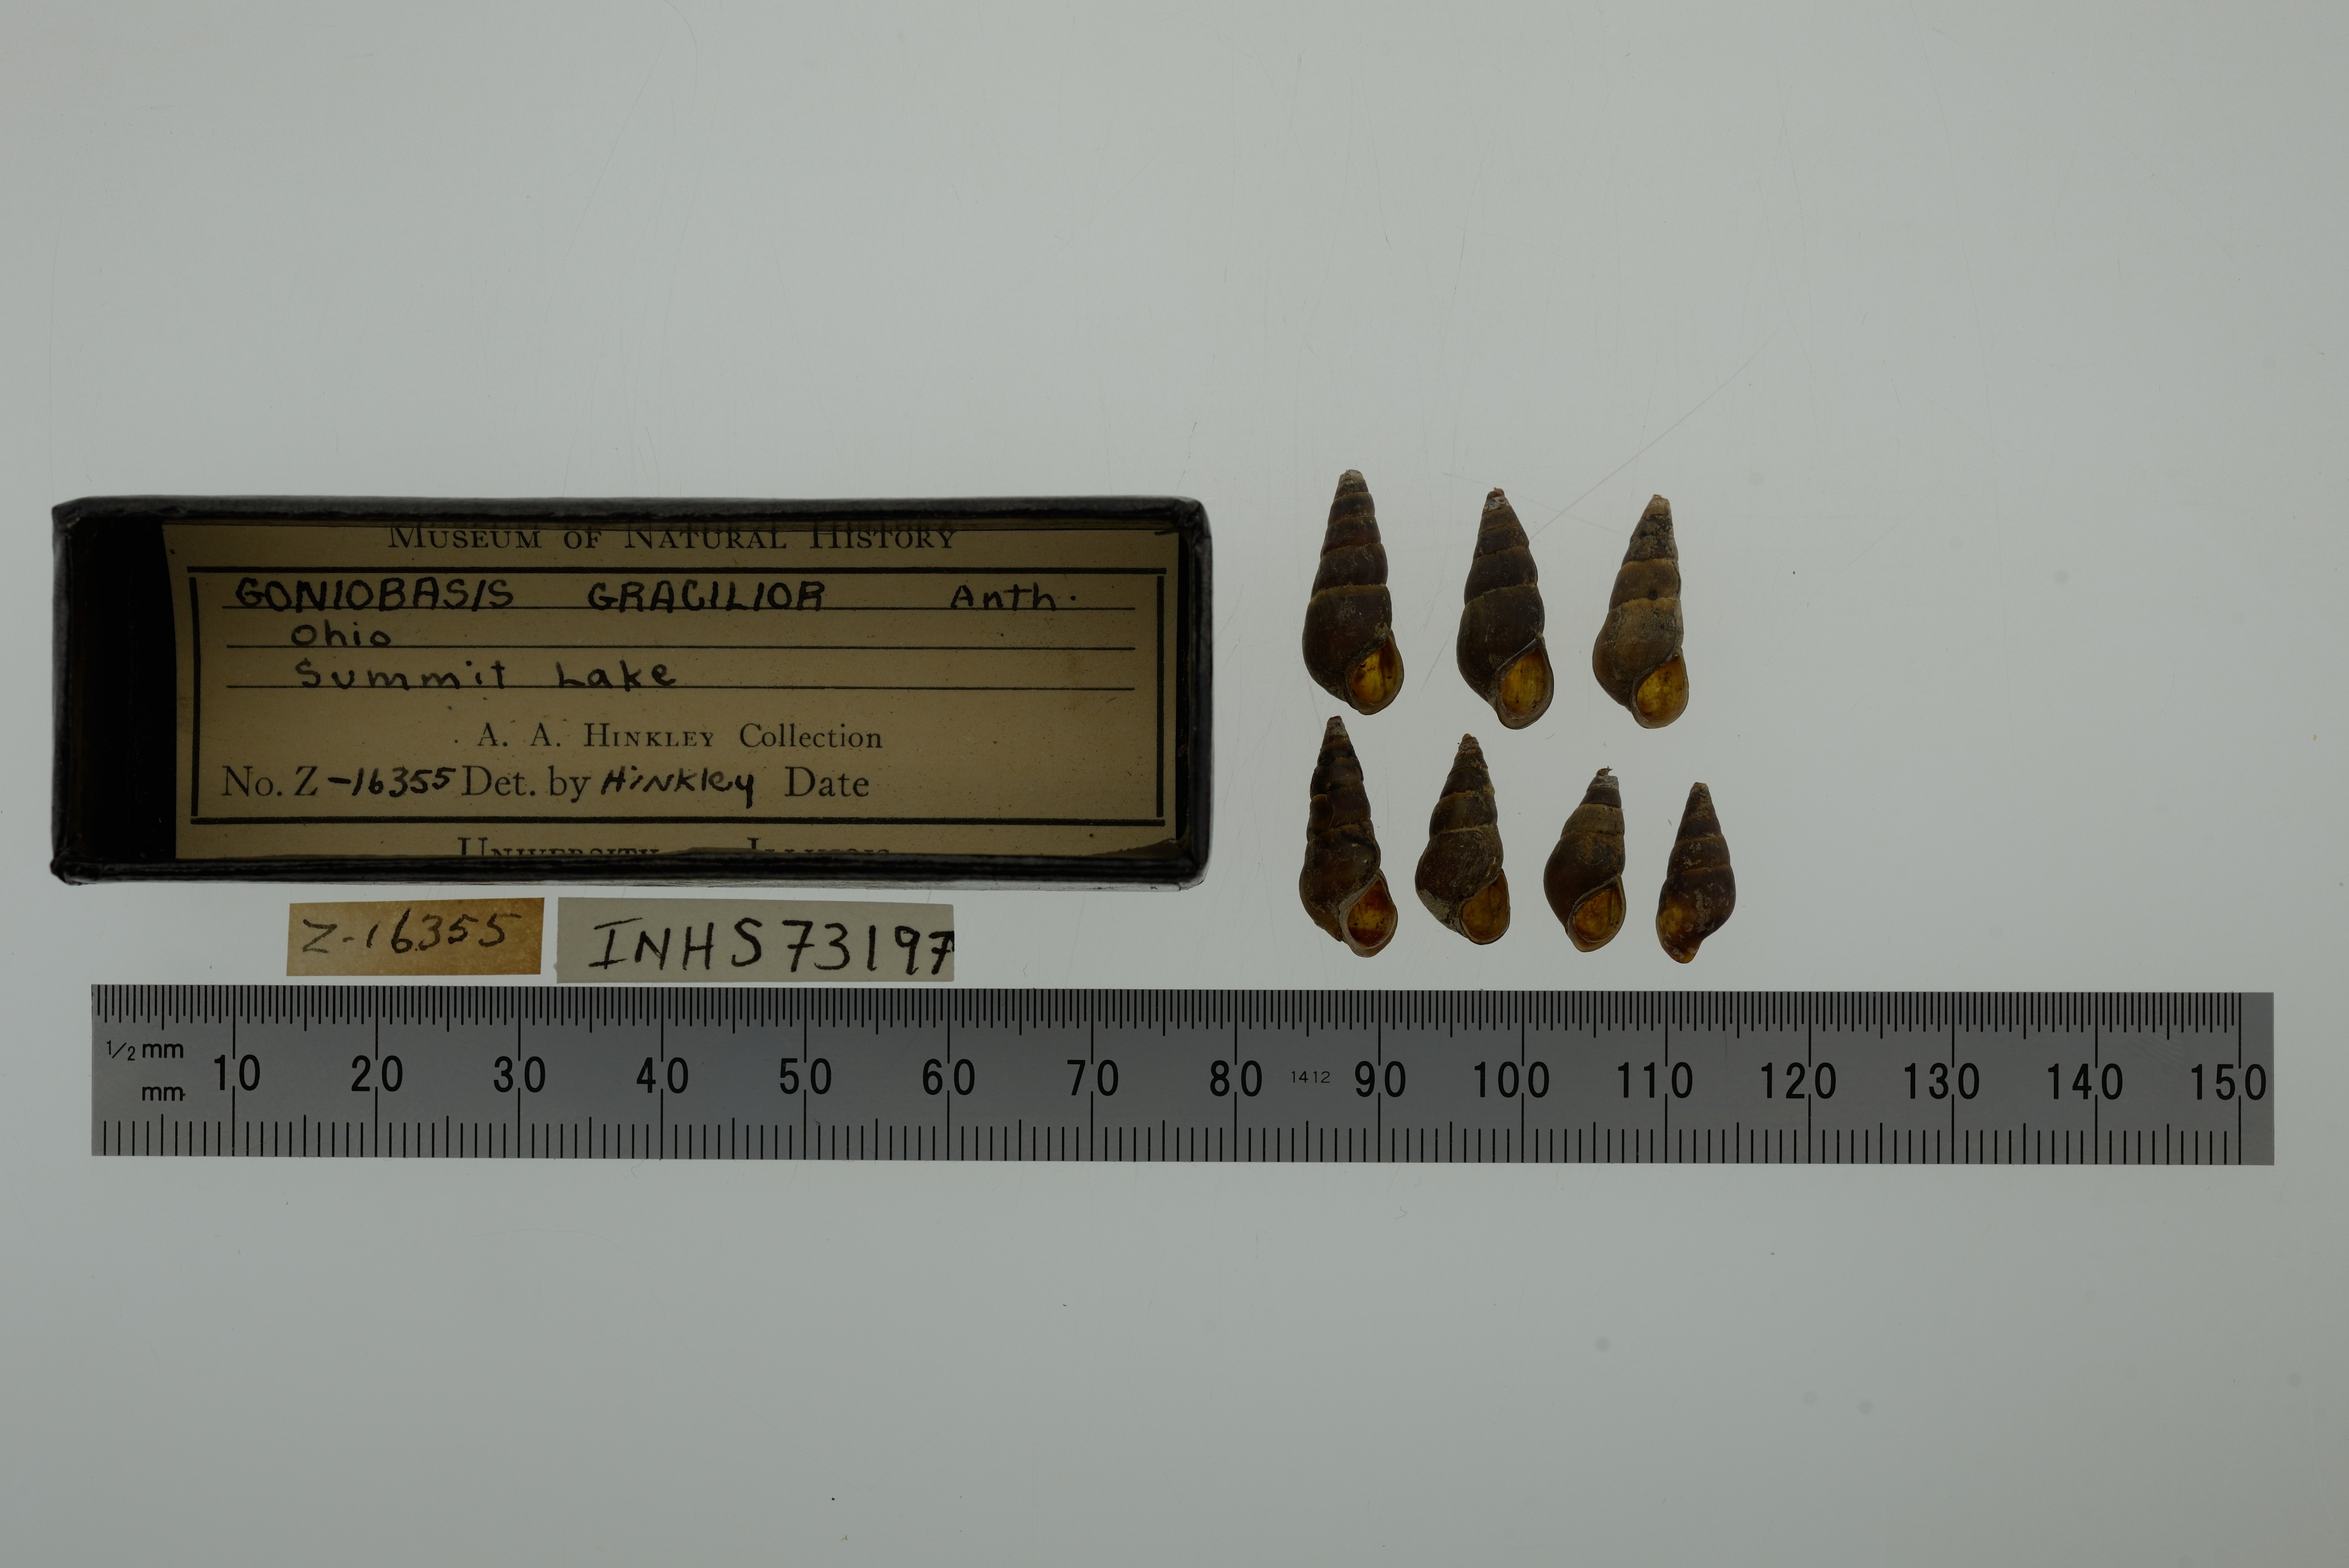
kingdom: Animalia
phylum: Mollusca
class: Gastropoda
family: Pleuroceridae
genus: Elimia
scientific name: Elimia livescens
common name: Liver elimia
